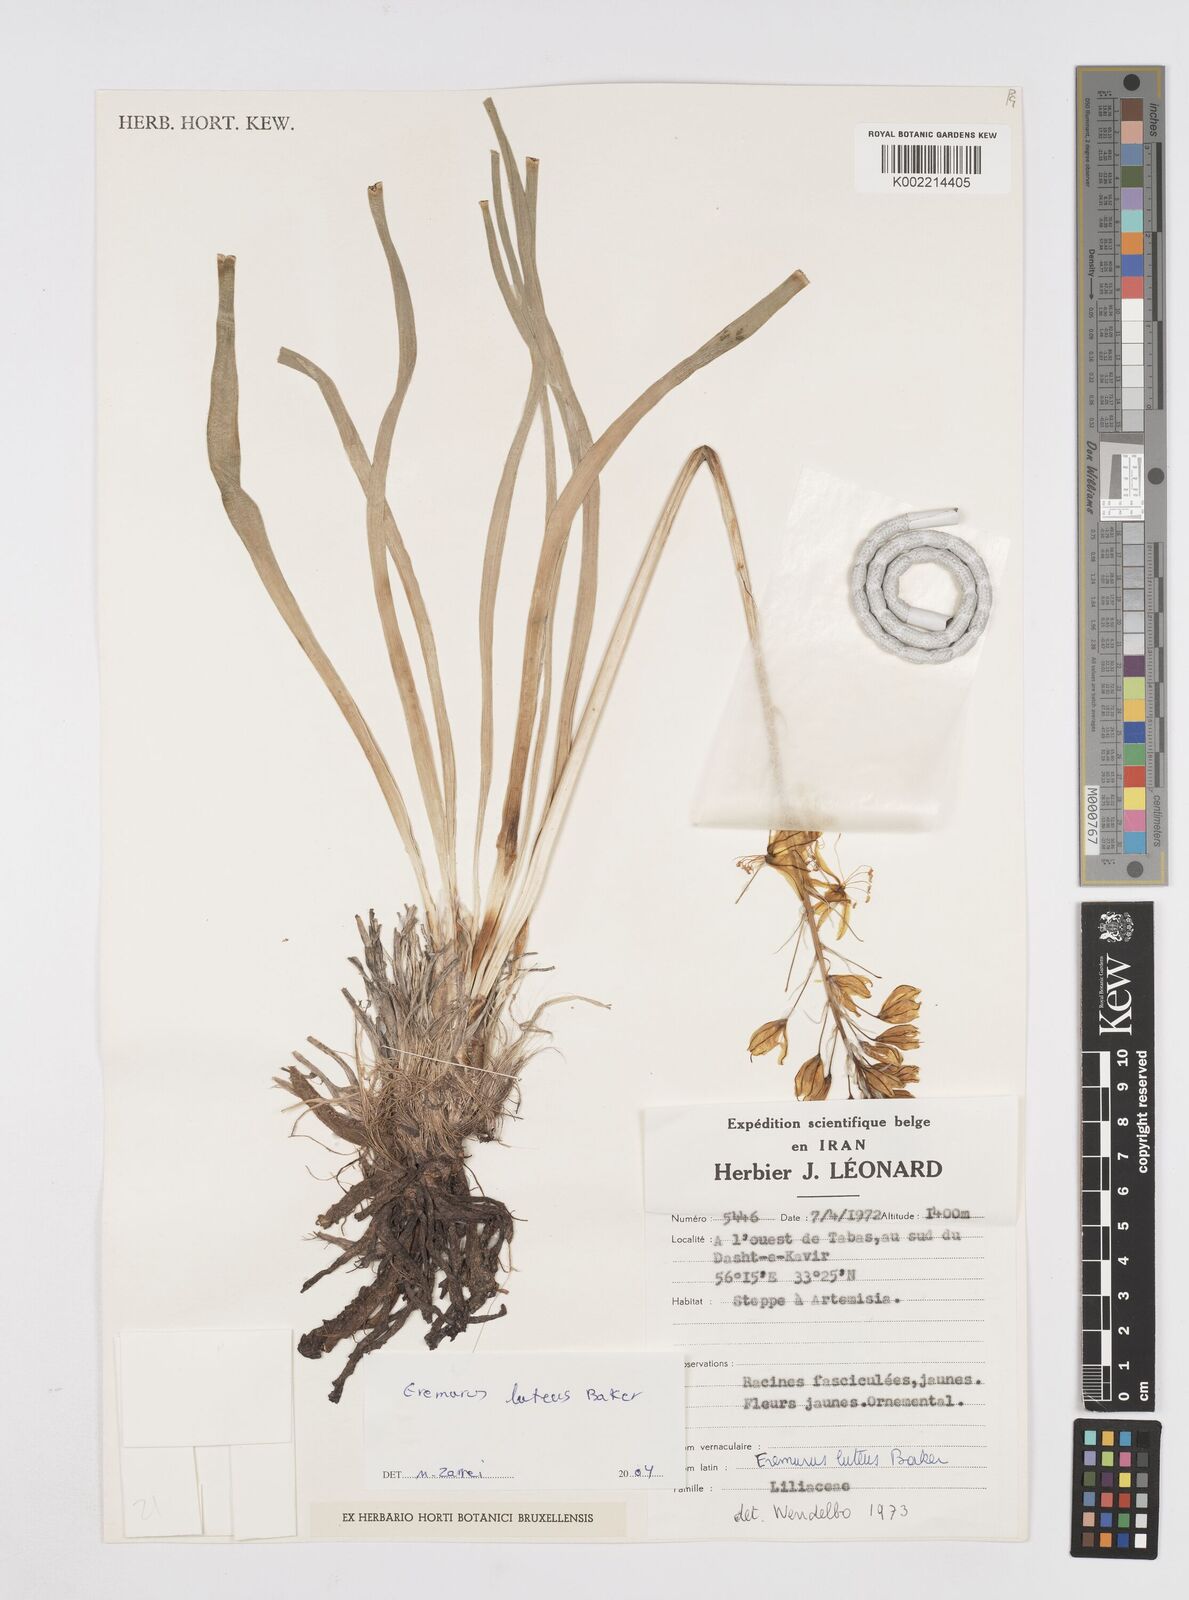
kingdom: Plantae
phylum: Tracheophyta
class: Liliopsida
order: Asparagales
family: Asphodelaceae
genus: Eremurus
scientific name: Eremurus luteus
